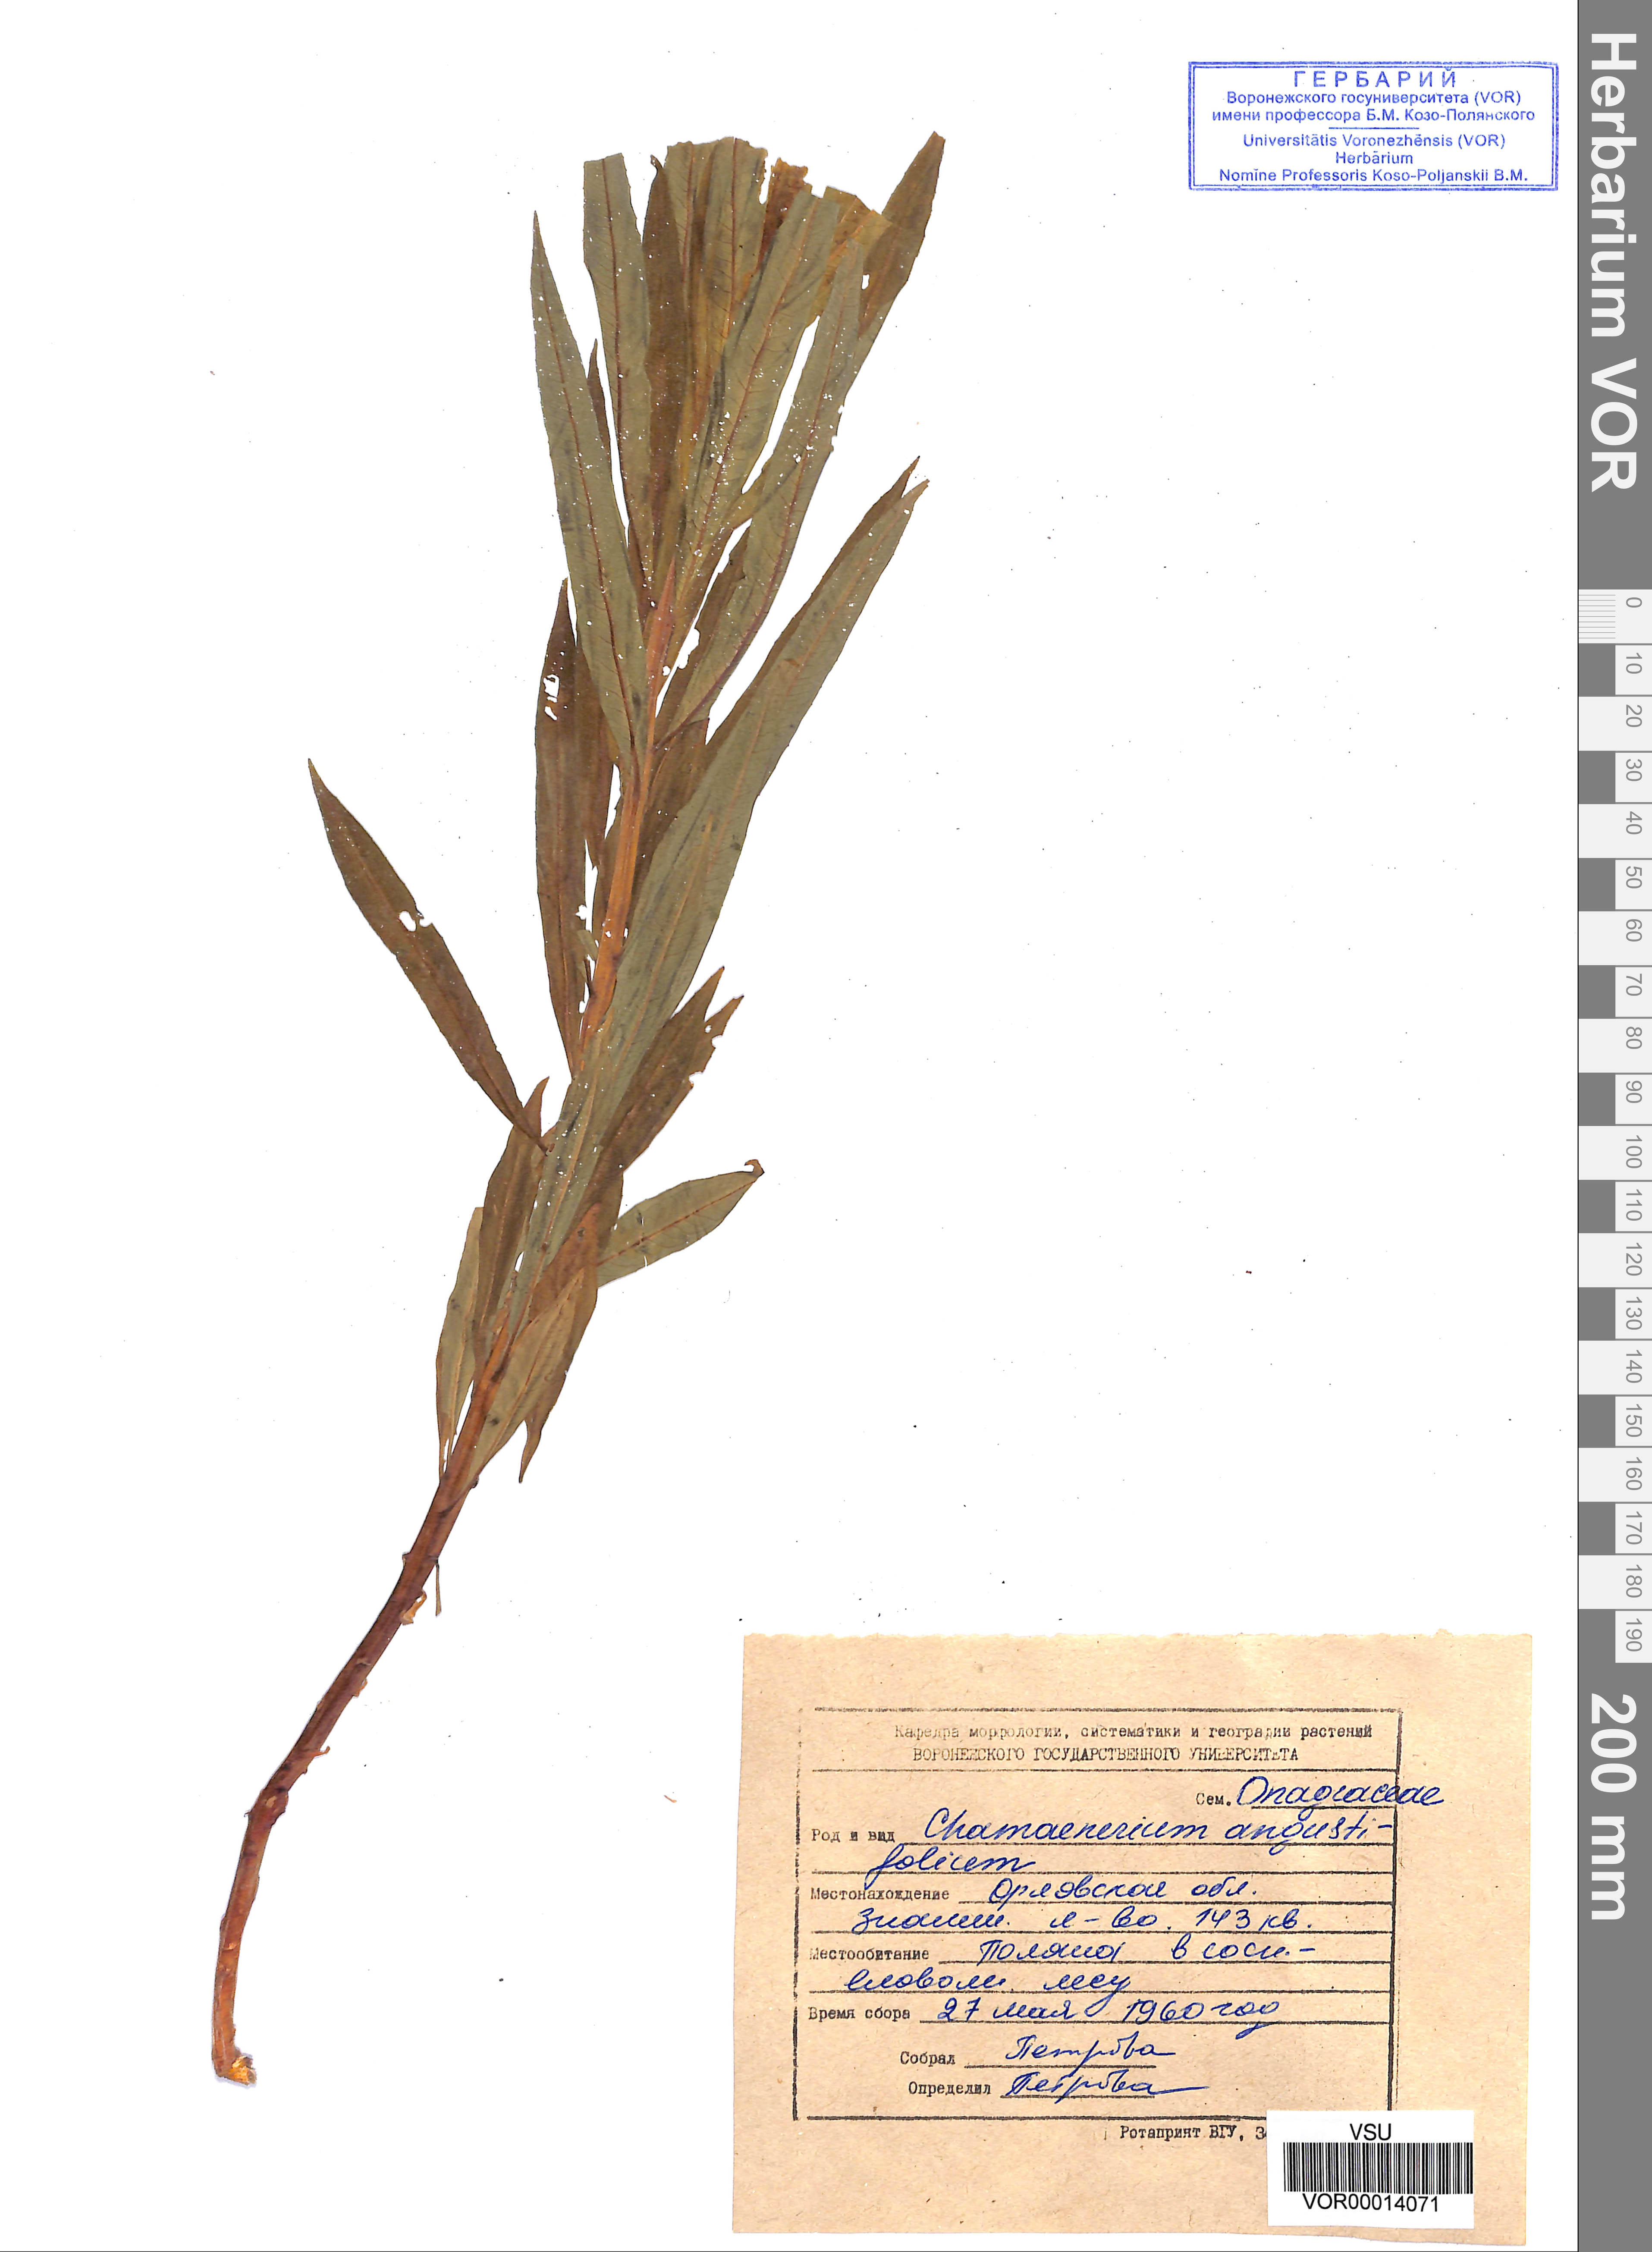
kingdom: Plantae
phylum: Tracheophyta
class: Magnoliopsida
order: Myrtales
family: Onagraceae
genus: Chamaenerion
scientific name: Chamaenerion angustifolium
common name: Fireweed
